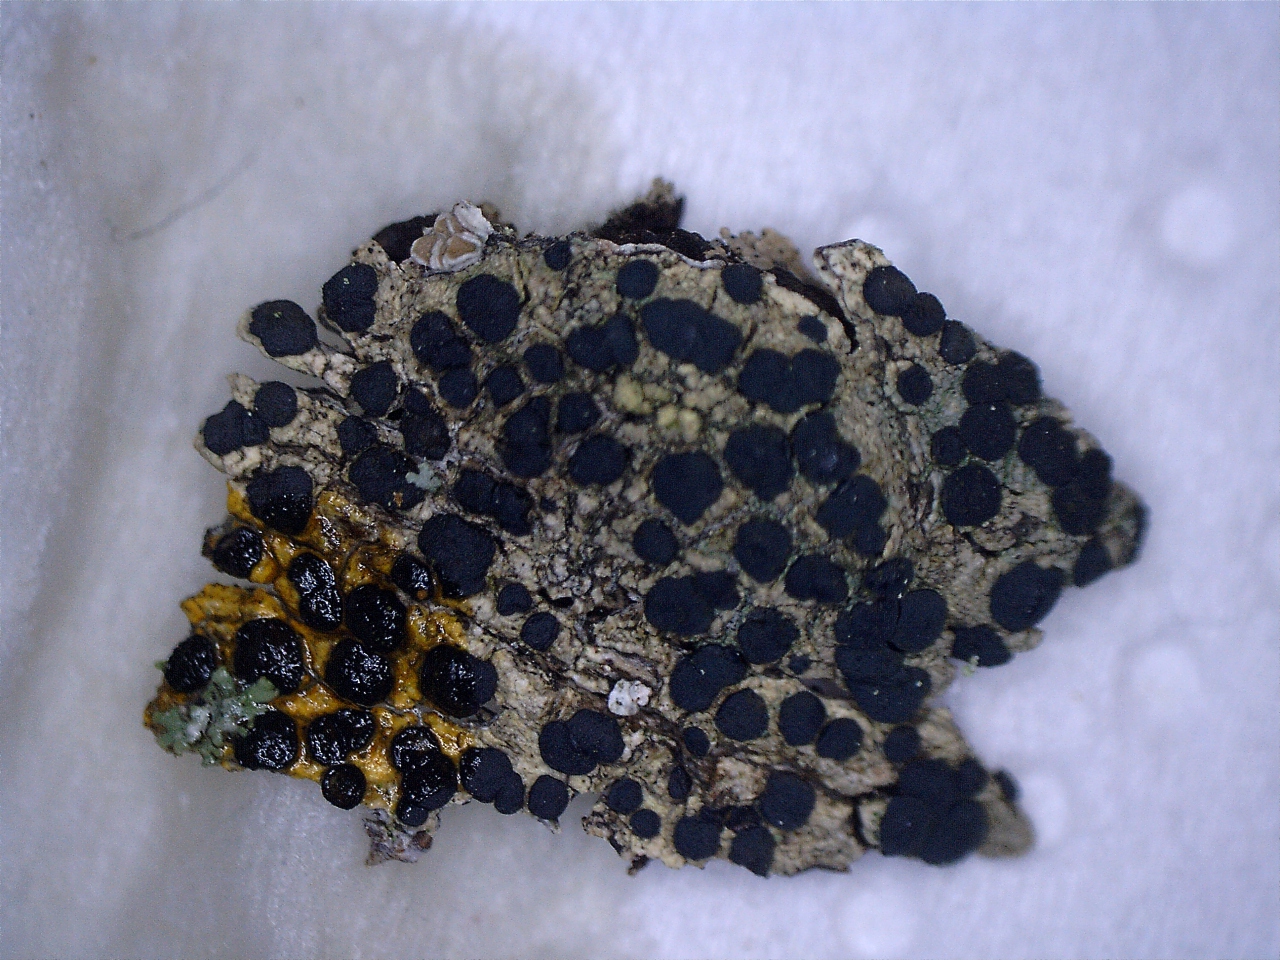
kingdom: Fungi
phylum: Ascomycota
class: Lecanoromycetes
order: Lecanorales
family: Lecanoraceae
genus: Lecidella
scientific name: Lecidella elaeochroma
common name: grågrøn skivelav
